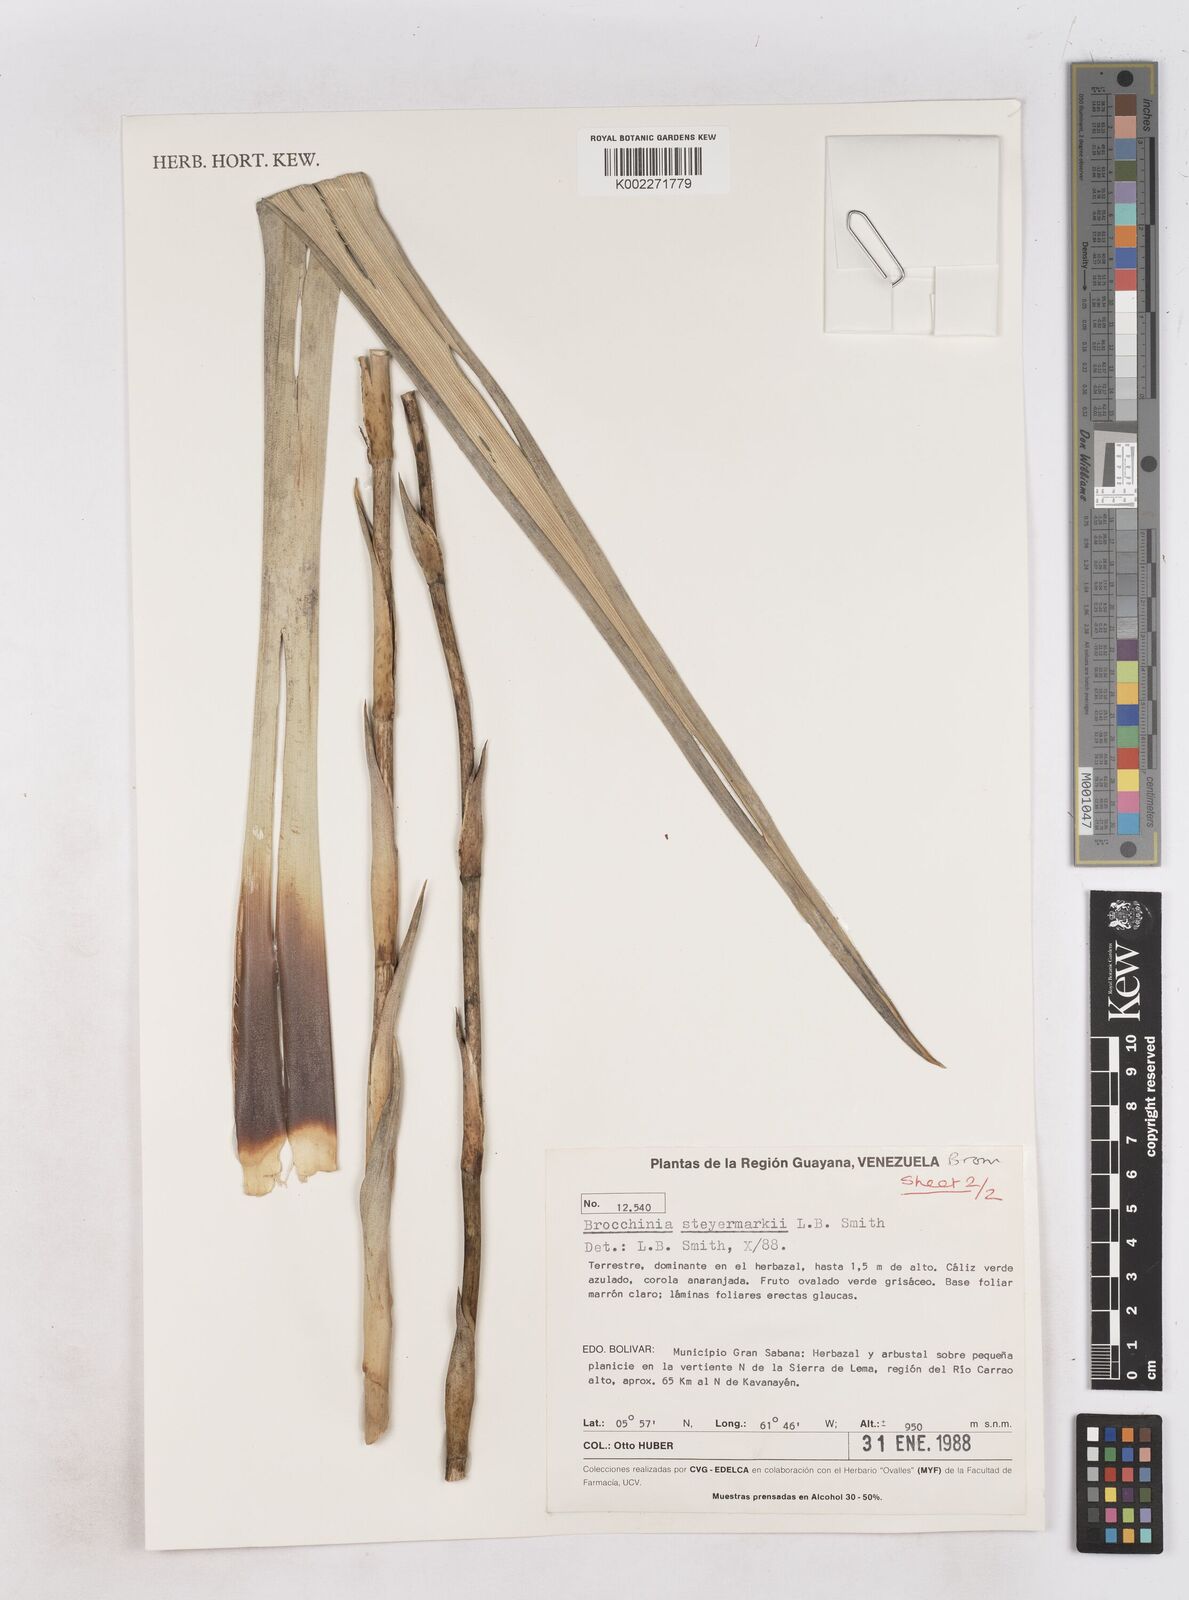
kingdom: Plantae
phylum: Tracheophyta
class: Liliopsida
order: Poales
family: Bromeliaceae
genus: Brocchinia
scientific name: Brocchinia steyermarkii
